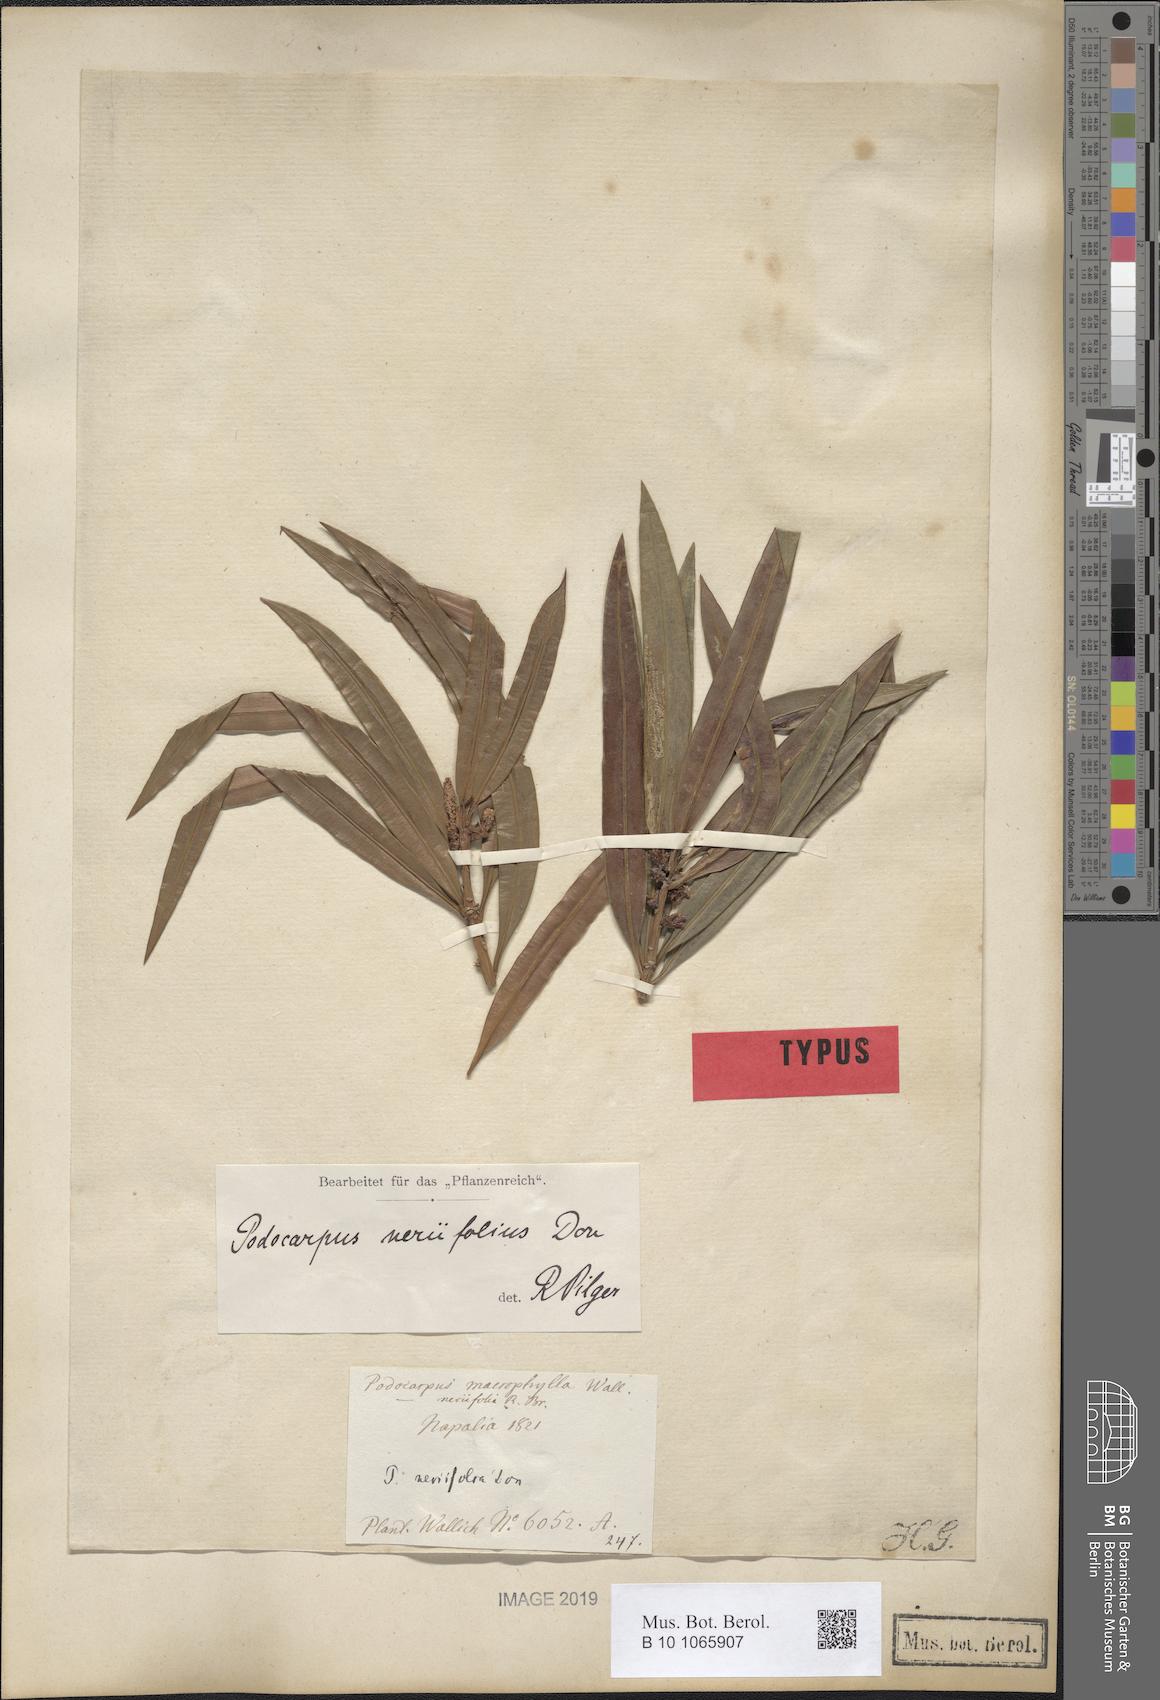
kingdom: Plantae
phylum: Tracheophyta
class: Pinopsida
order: Pinales
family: Podocarpaceae
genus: Podocarpus
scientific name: Podocarpus neriifolius
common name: Brown pine
